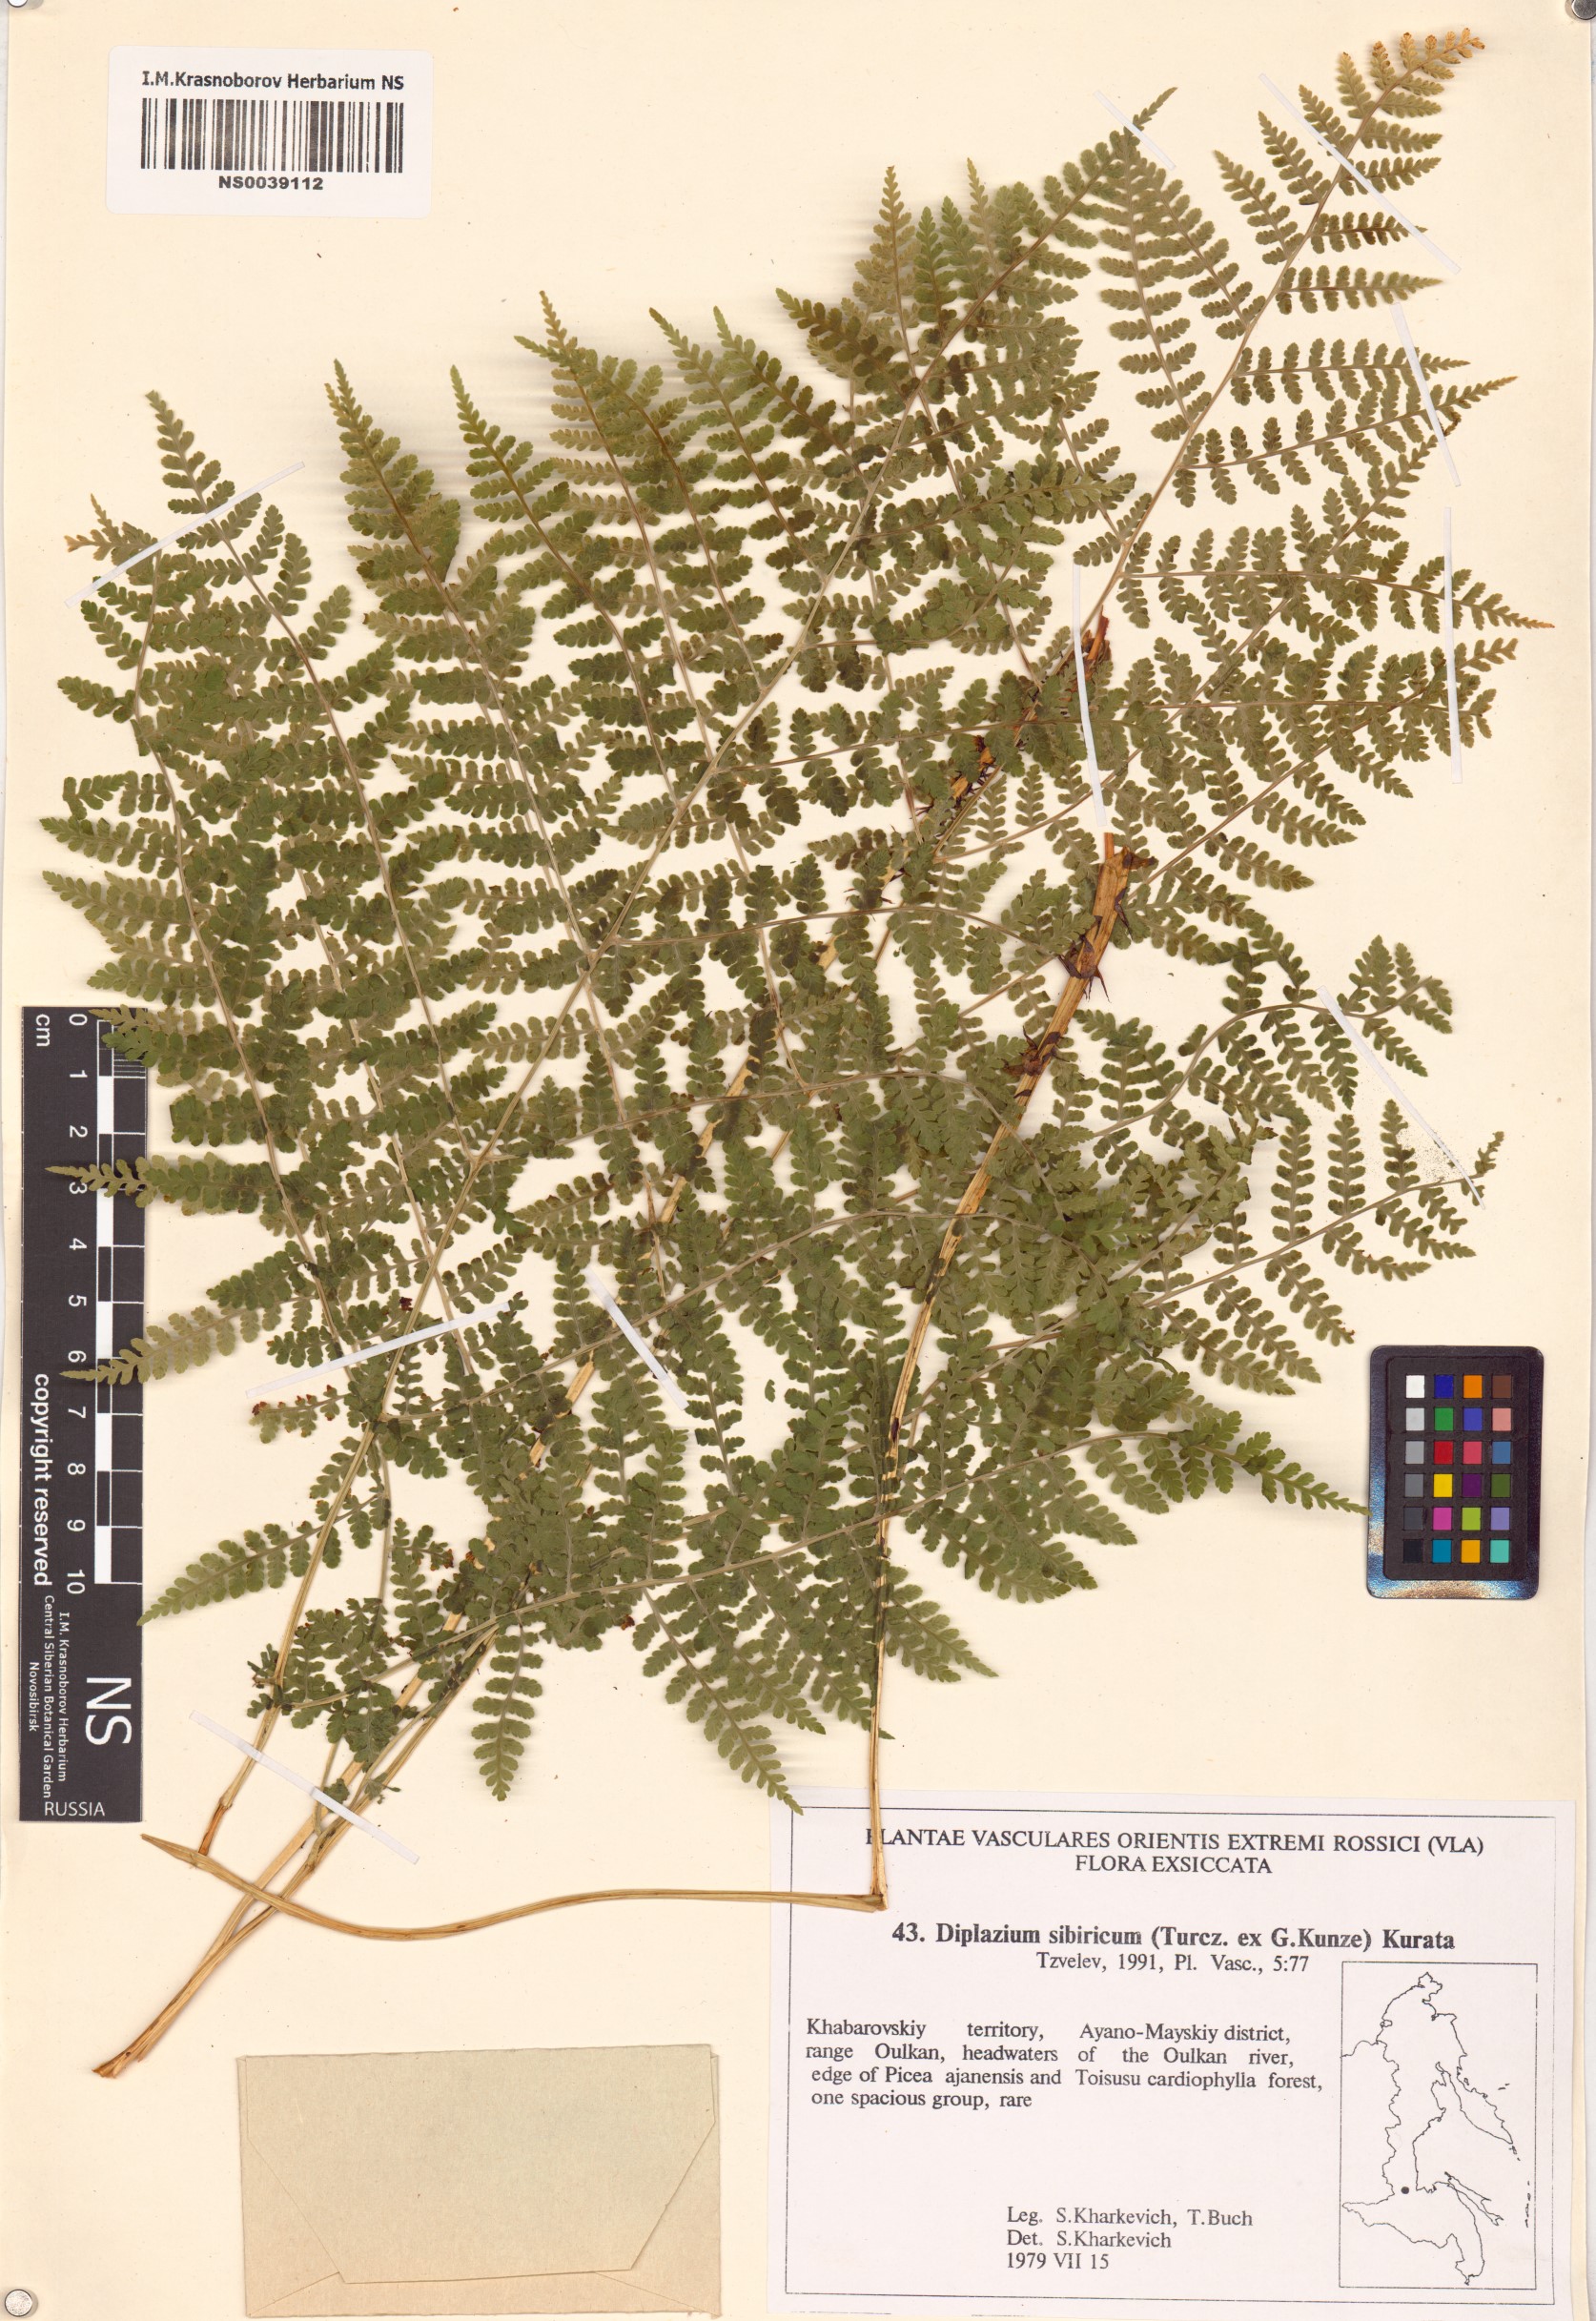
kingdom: Plantae
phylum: Tracheophyta
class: Polypodiopsida
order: Polypodiales
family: Athyriaceae
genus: Diplazium
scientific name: Diplazium sibiricum
